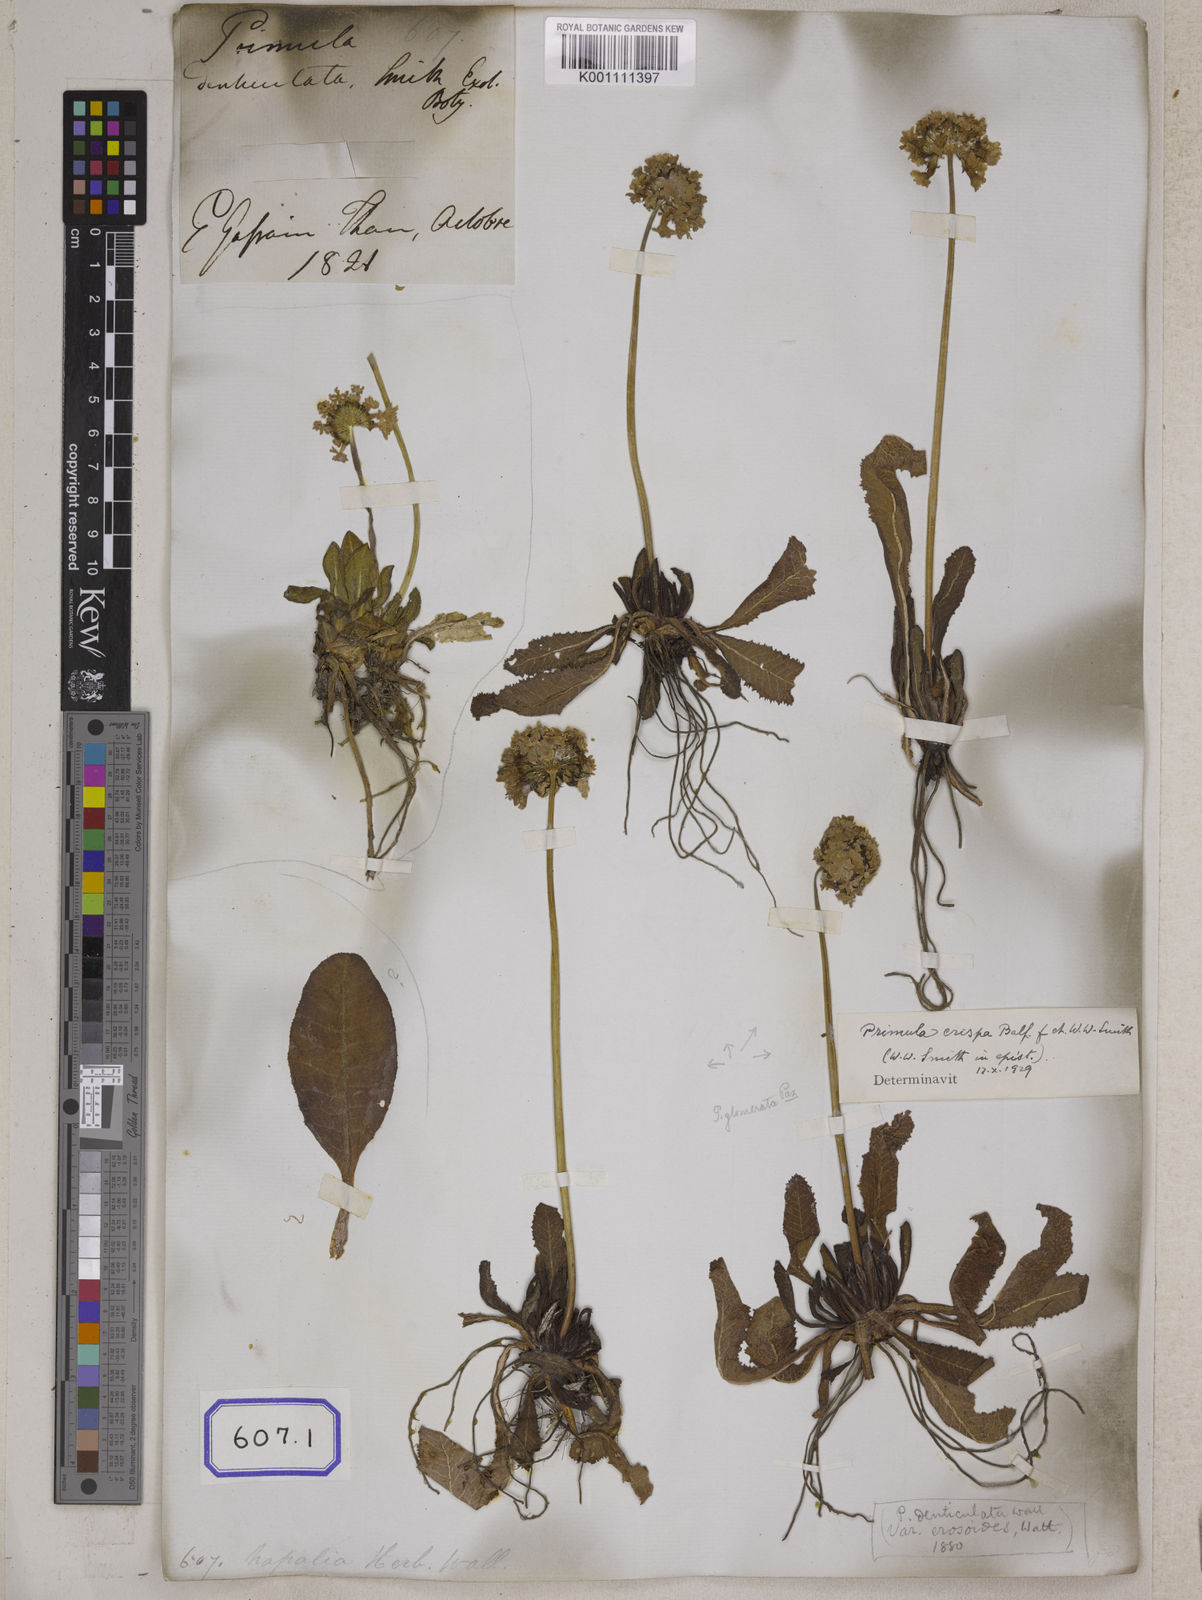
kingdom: Plantae
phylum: Tracheophyta
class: Magnoliopsida
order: Ericales
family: Primulaceae
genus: Primula
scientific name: Primula denticulata
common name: Drumstick primula
